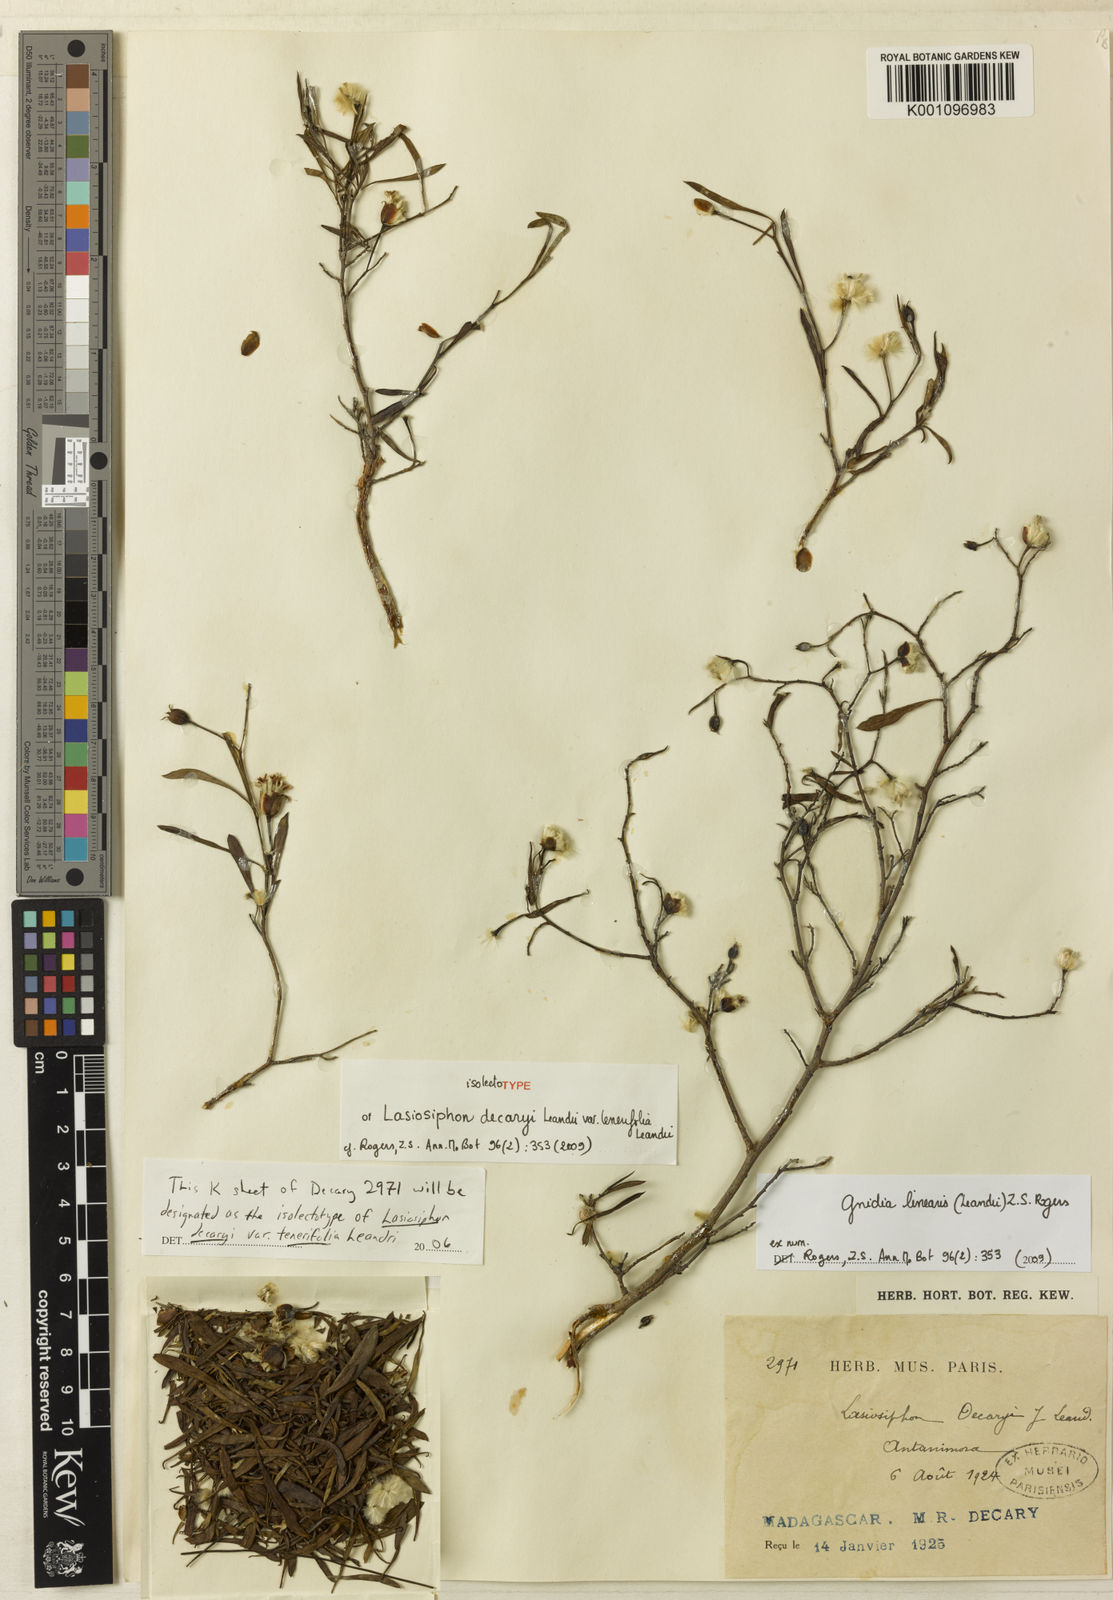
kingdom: Plantae
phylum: Tracheophyta
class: Magnoliopsida
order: Malvales
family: Thymelaeaceae
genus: Gnidia
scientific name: Gnidia linearis
